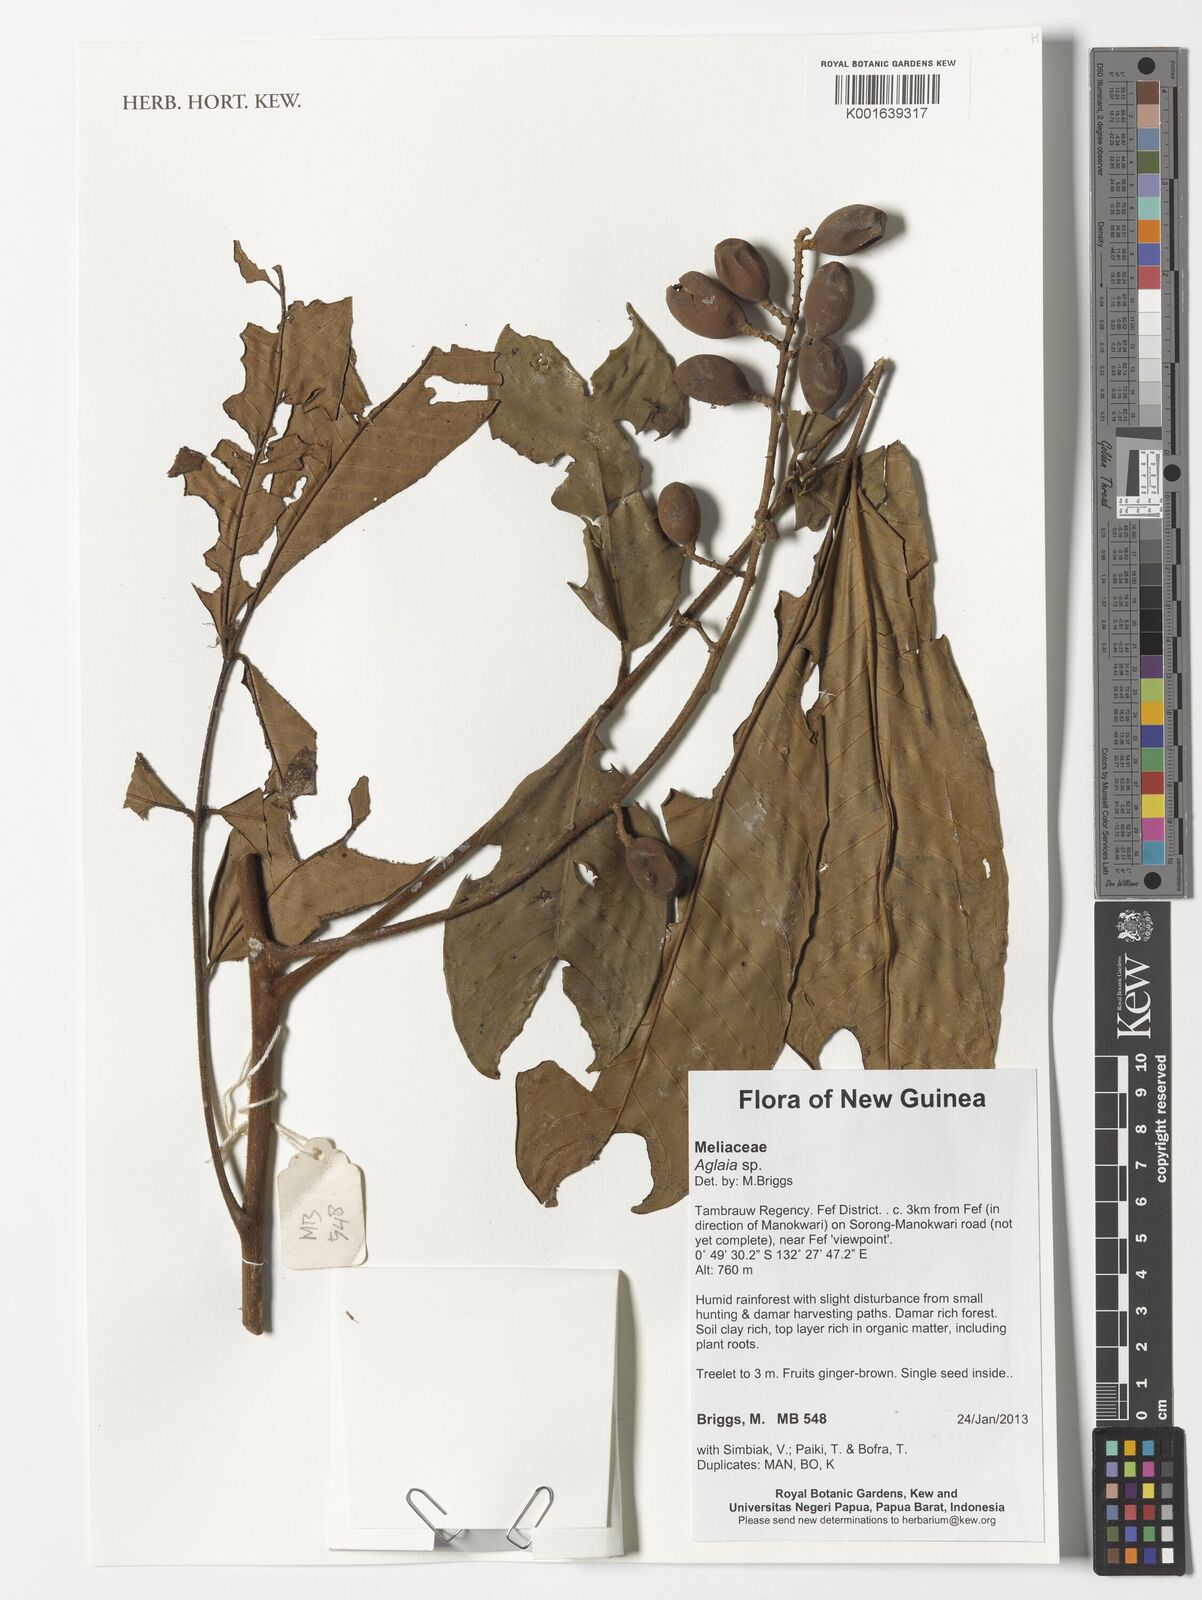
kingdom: Plantae
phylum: Tracheophyta
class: Magnoliopsida
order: Sapindales
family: Meliaceae
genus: Aglaia
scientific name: Aglaia
